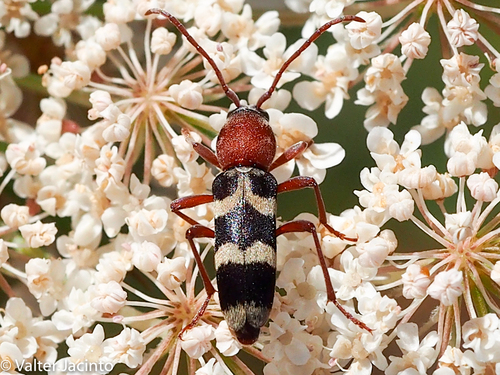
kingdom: Animalia
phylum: Arthropoda
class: Insecta
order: Coleoptera
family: Cerambycidae
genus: Chlorophorus
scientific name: Chlorophorus trifasciatus
